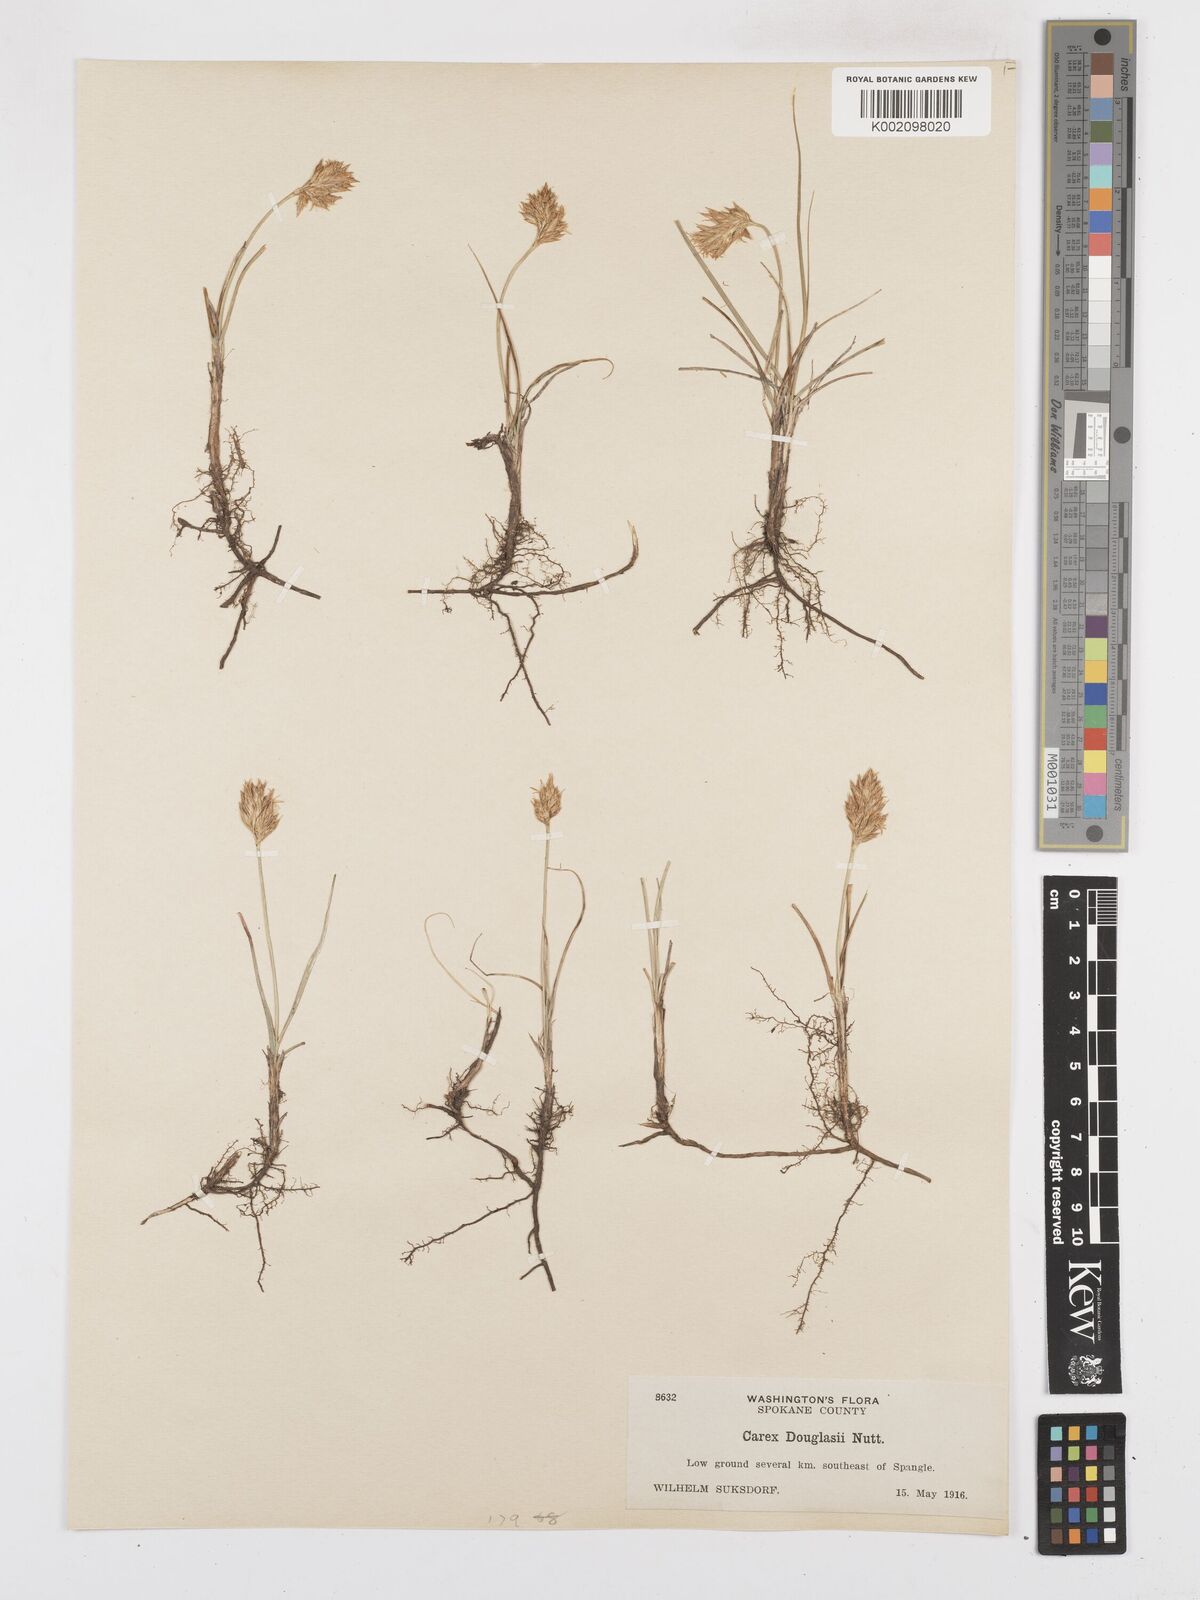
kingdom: Plantae
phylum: Tracheophyta
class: Liliopsida
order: Poales
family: Cyperaceae
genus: Carex
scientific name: Carex douglasii
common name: Douglas' sedge
